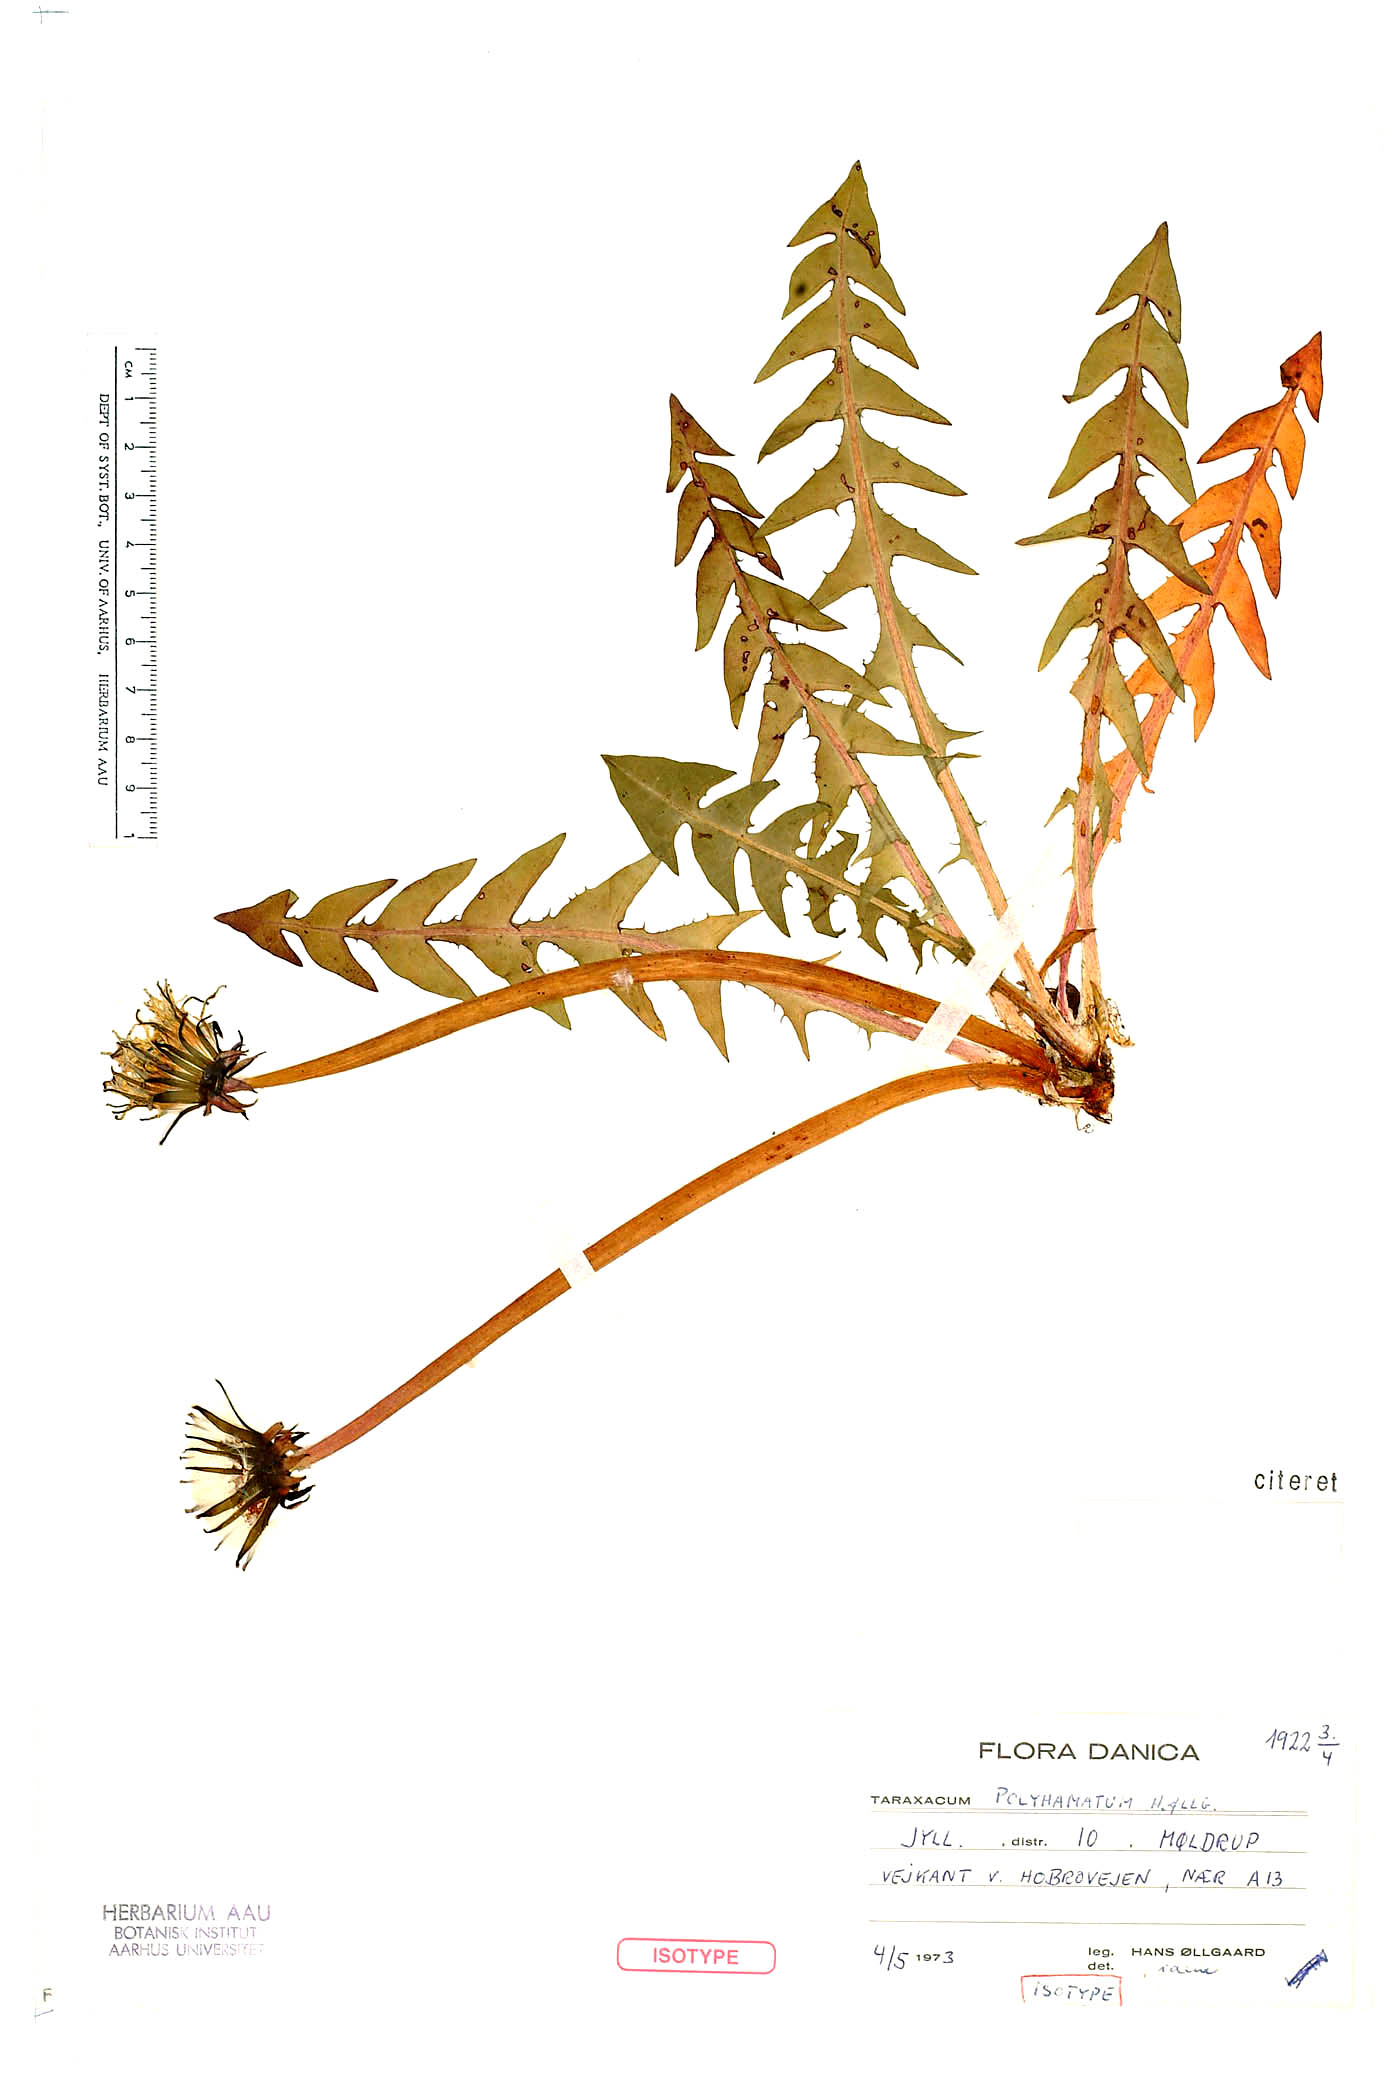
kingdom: Plantae
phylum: Tracheophyta
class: Magnoliopsida
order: Asterales
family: Asteraceae
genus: Taraxacum
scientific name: Taraxacum polyhamatum
